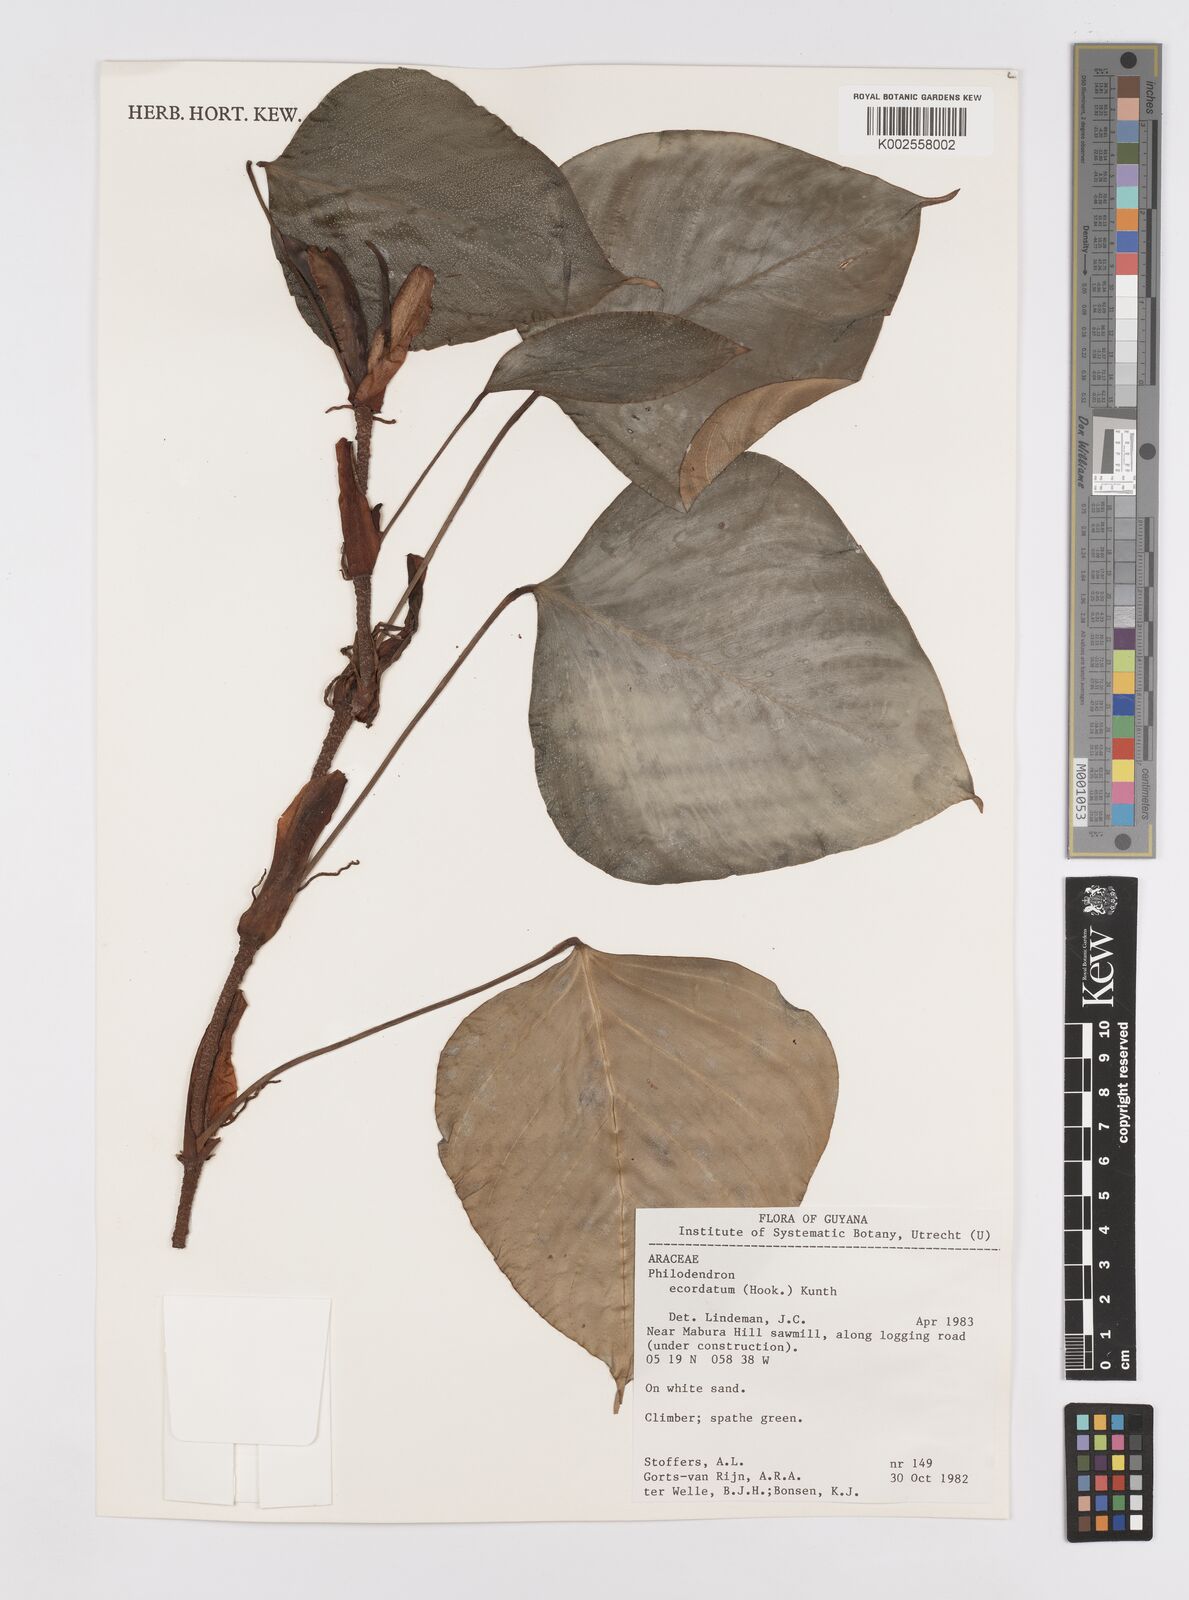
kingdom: Plantae
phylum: Tracheophyta
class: Liliopsida
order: Alismatales
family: Araceae
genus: Philodendron
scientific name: Philodendron ecordatum
